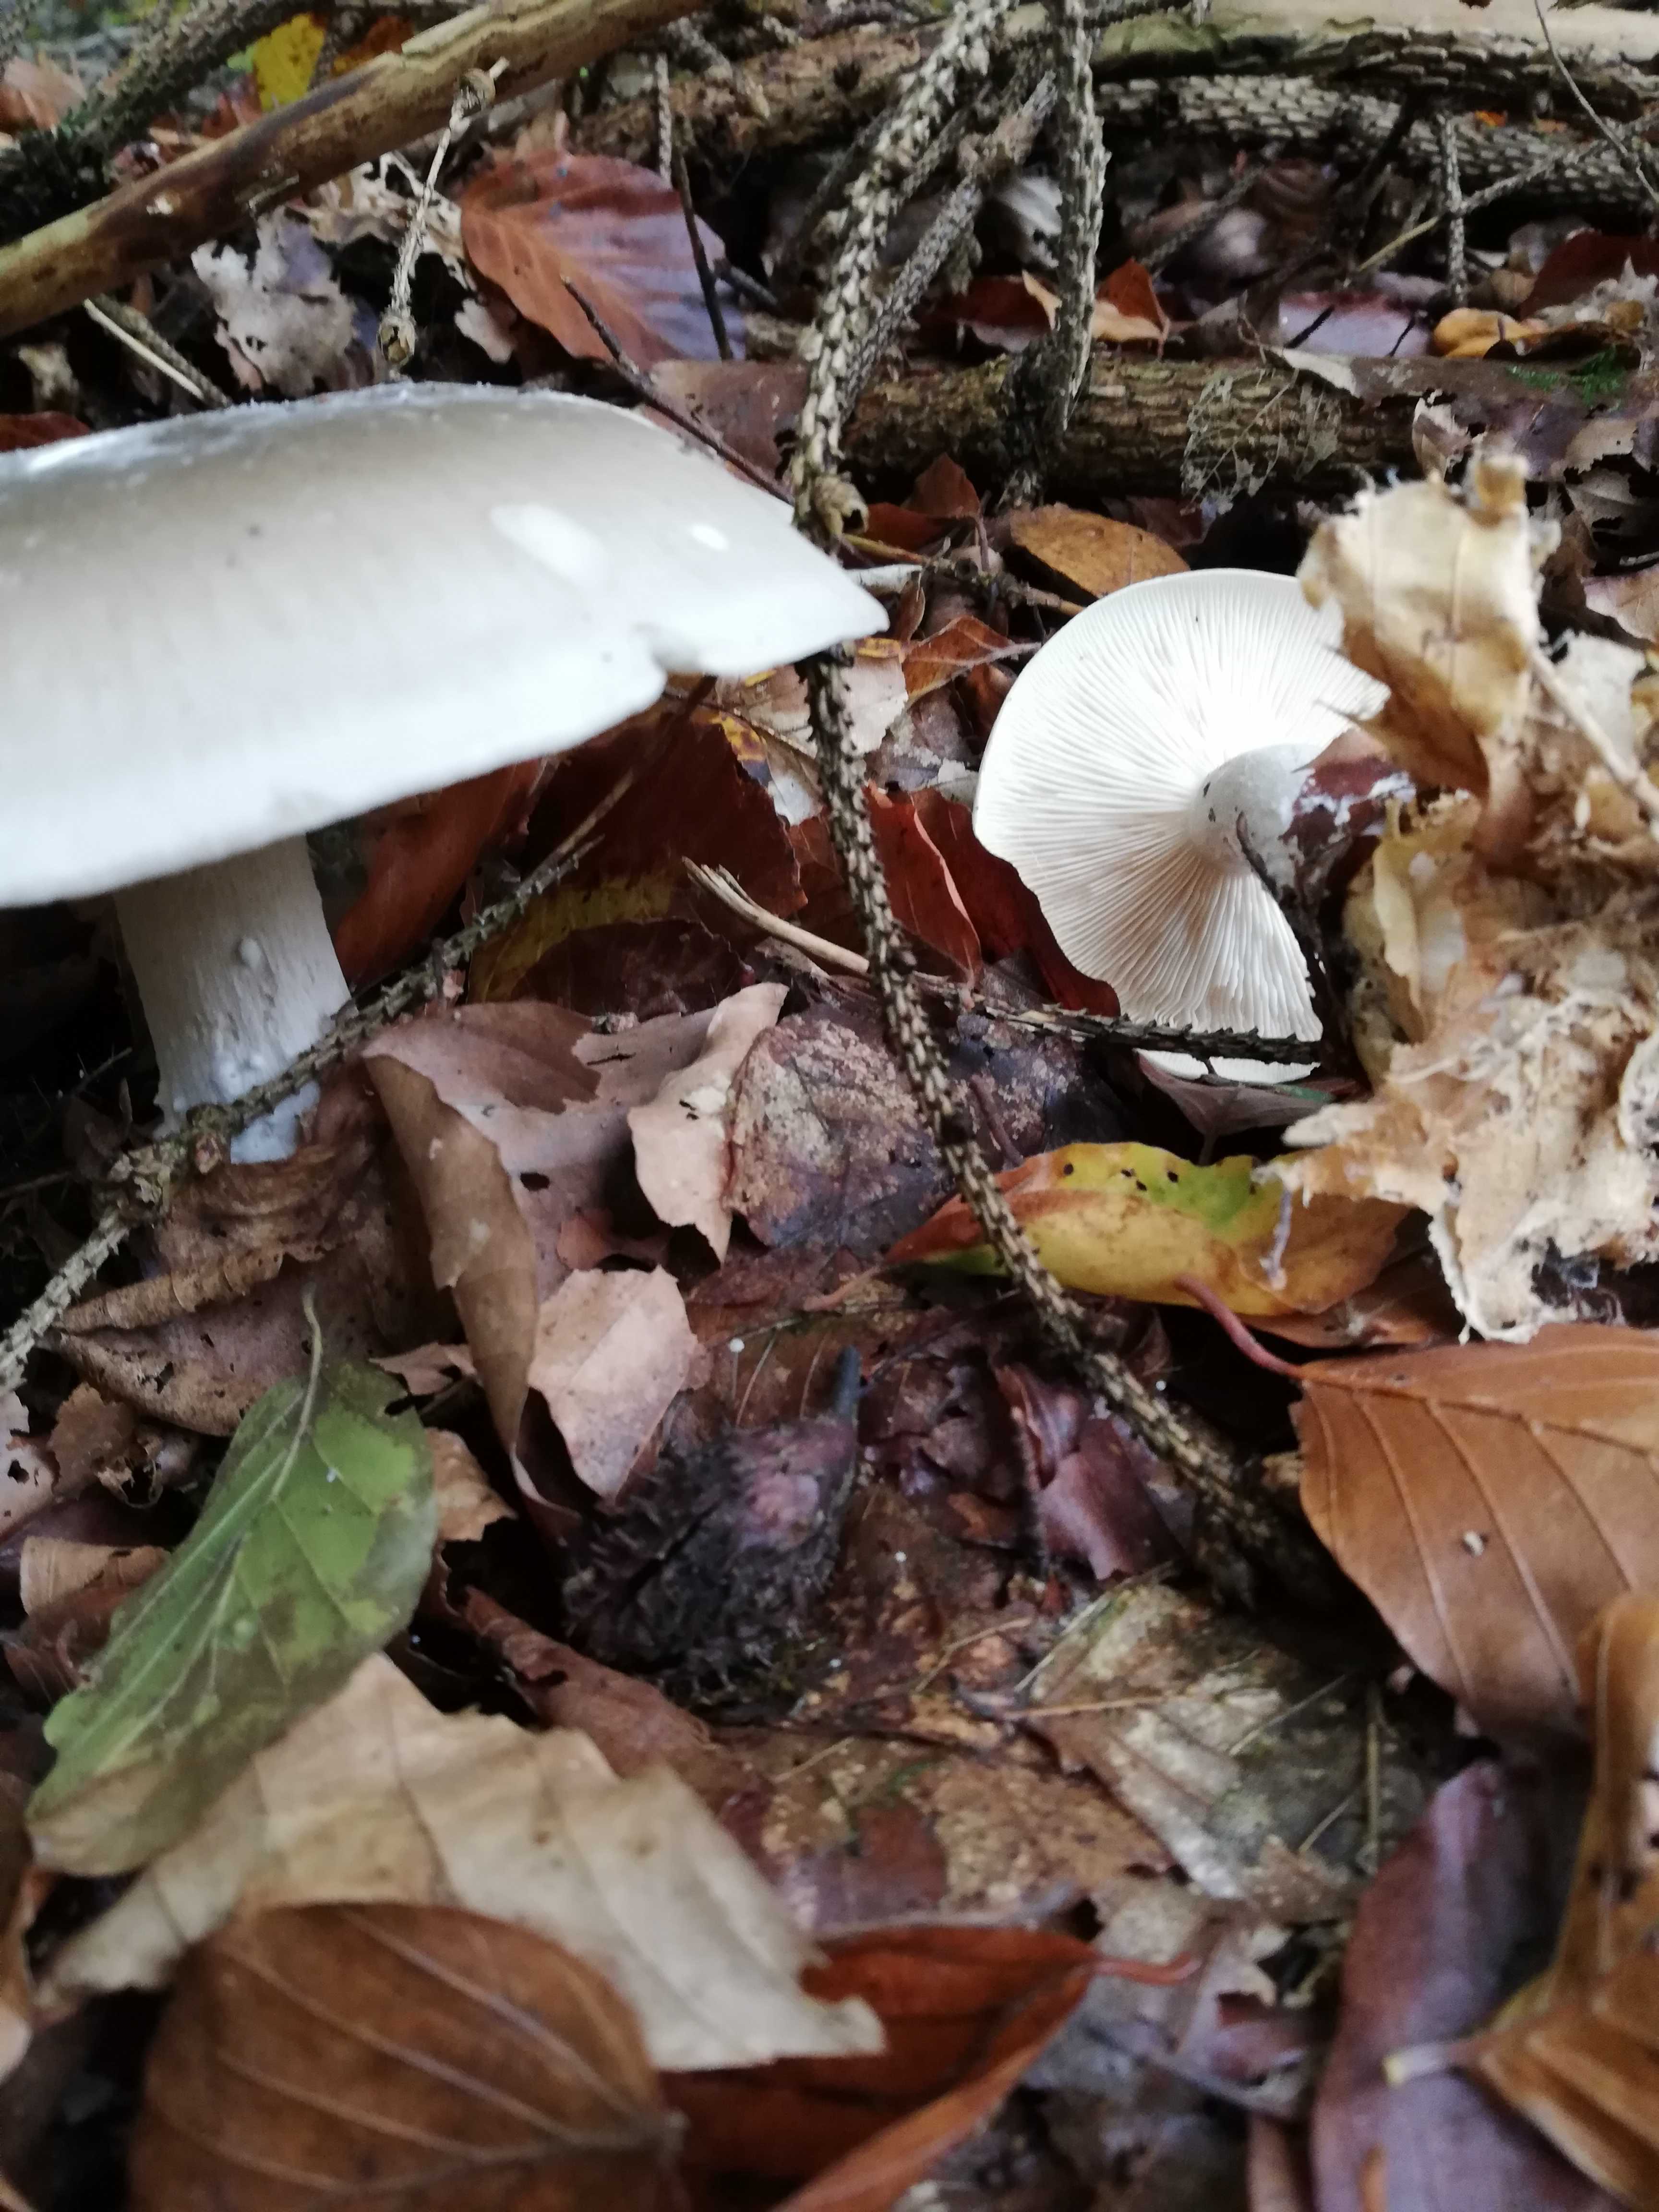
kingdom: Fungi
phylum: Basidiomycota
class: Agaricomycetes
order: Agaricales
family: Tricholomataceae
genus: Clitocybe
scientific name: Clitocybe nebularis
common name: tåge-tragthat
